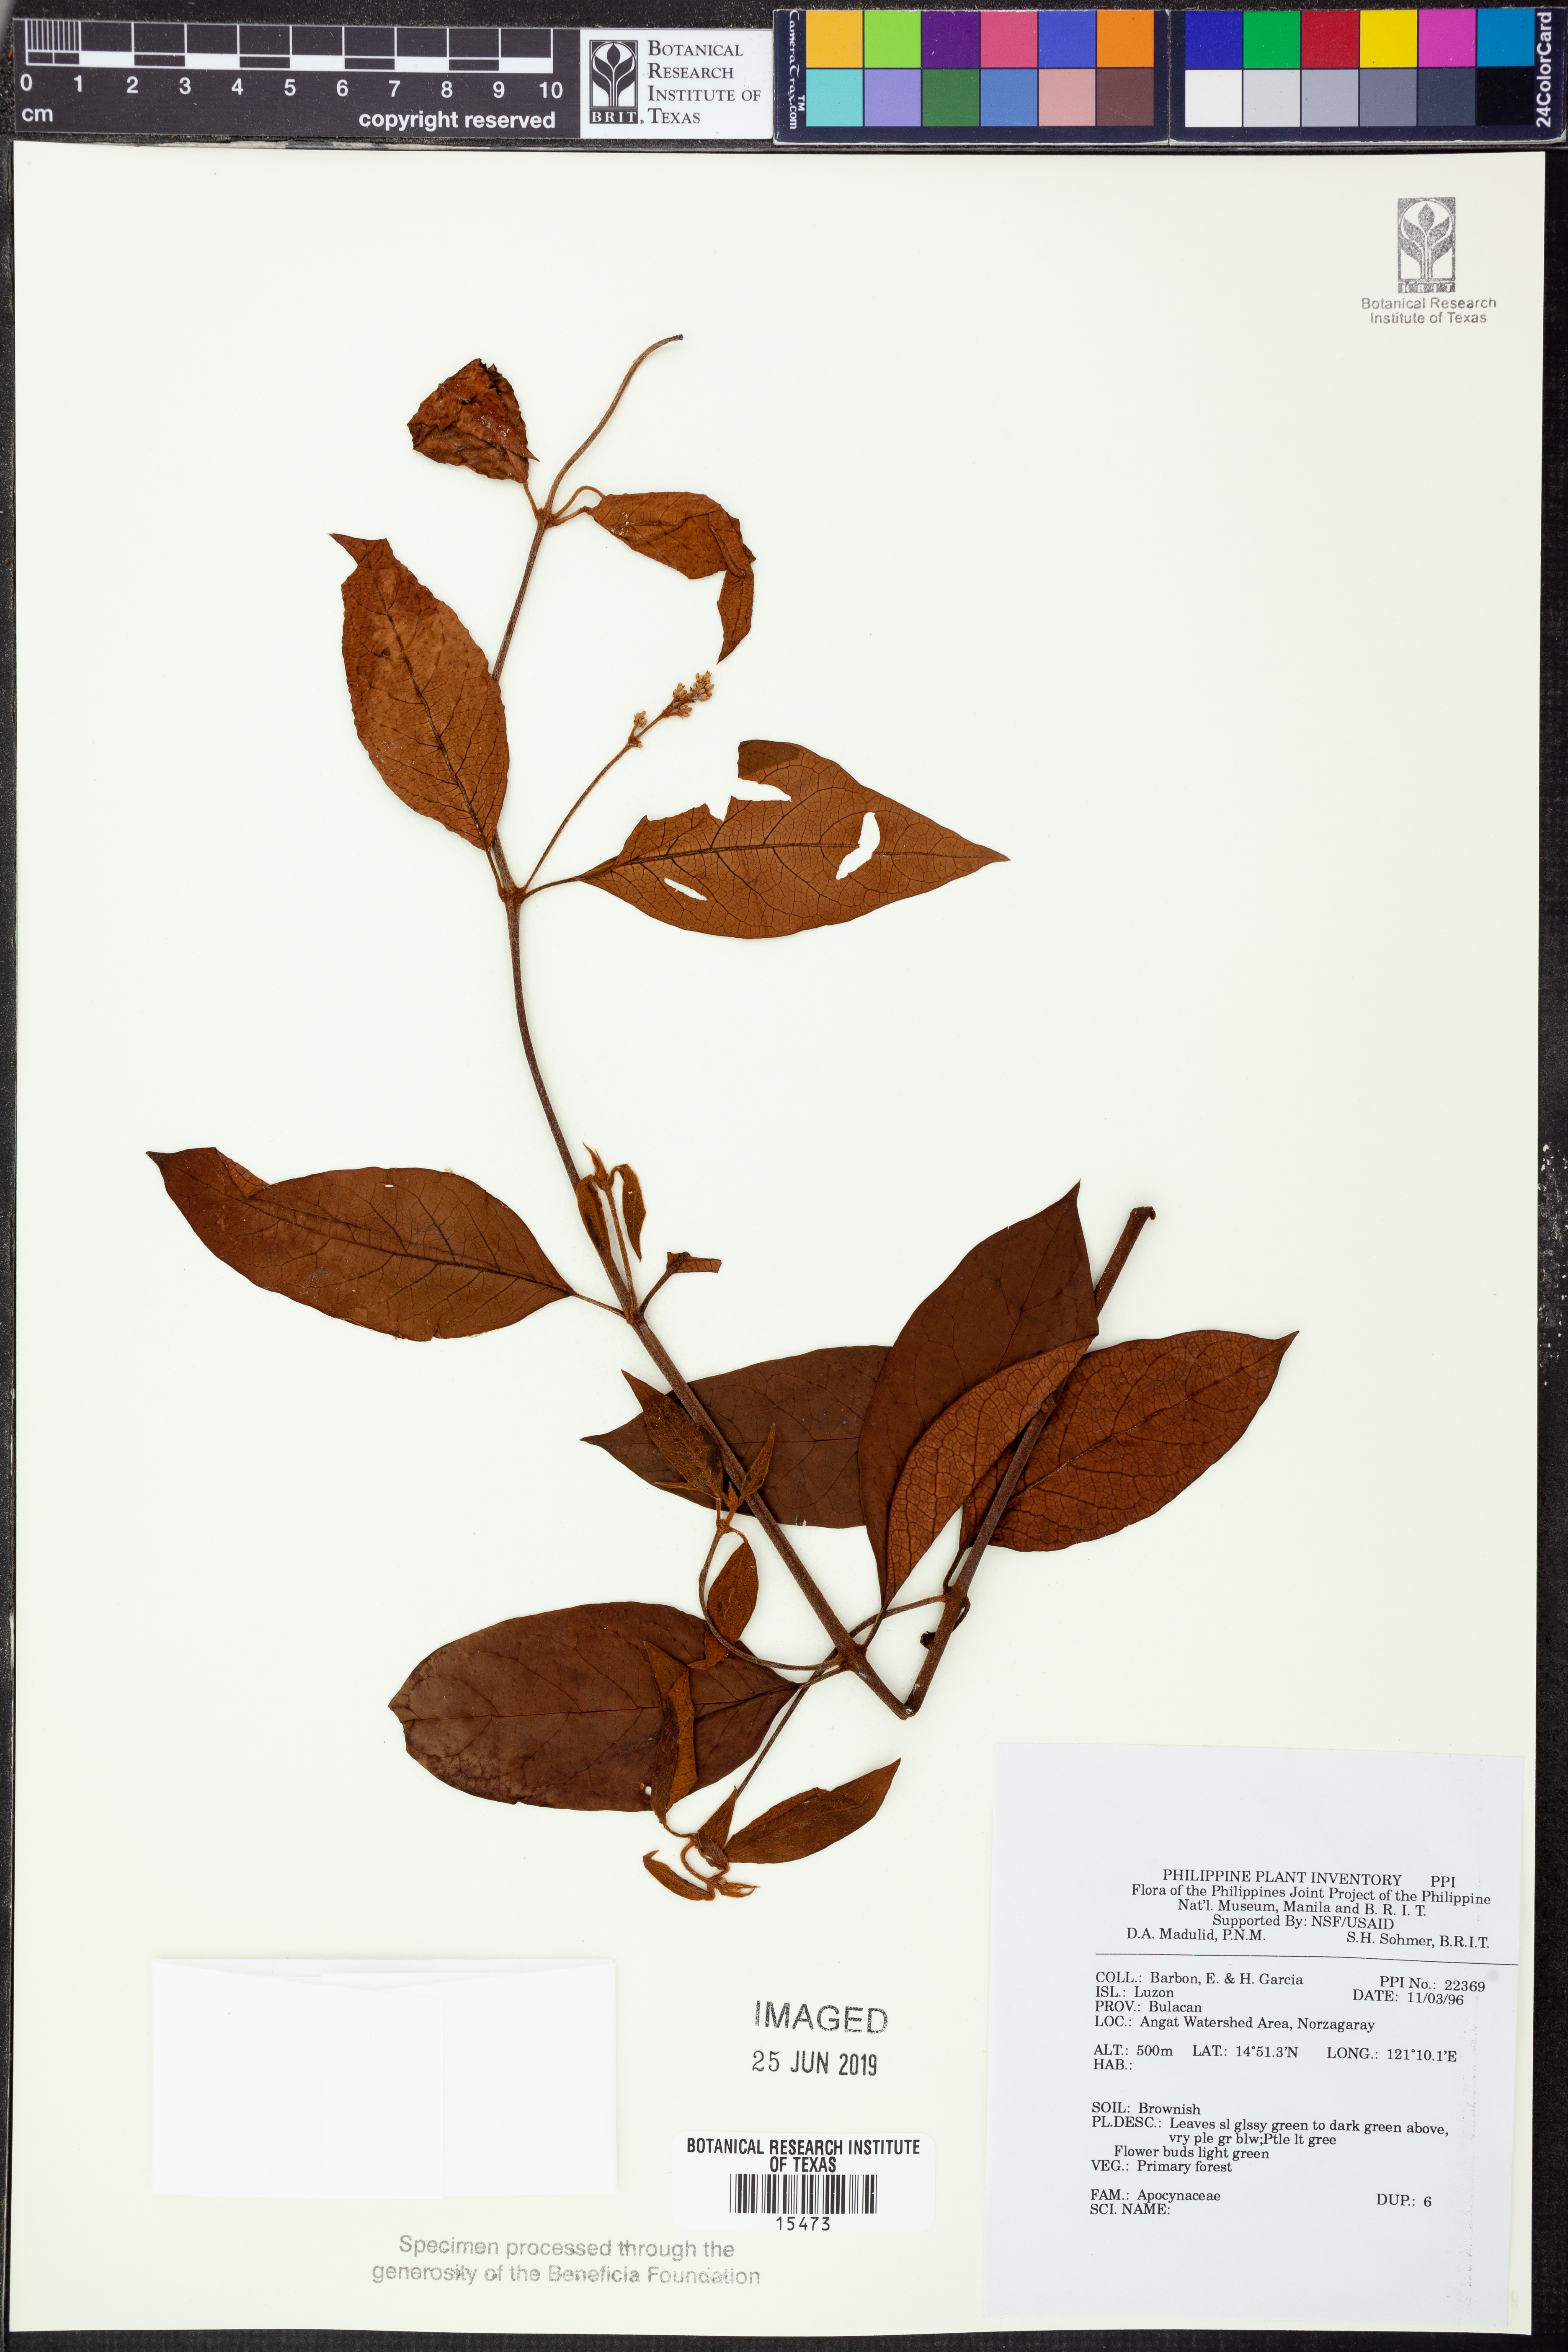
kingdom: Plantae
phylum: Tracheophyta
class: Magnoliopsida
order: Gentianales
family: Apocynaceae
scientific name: Apocynaceae
